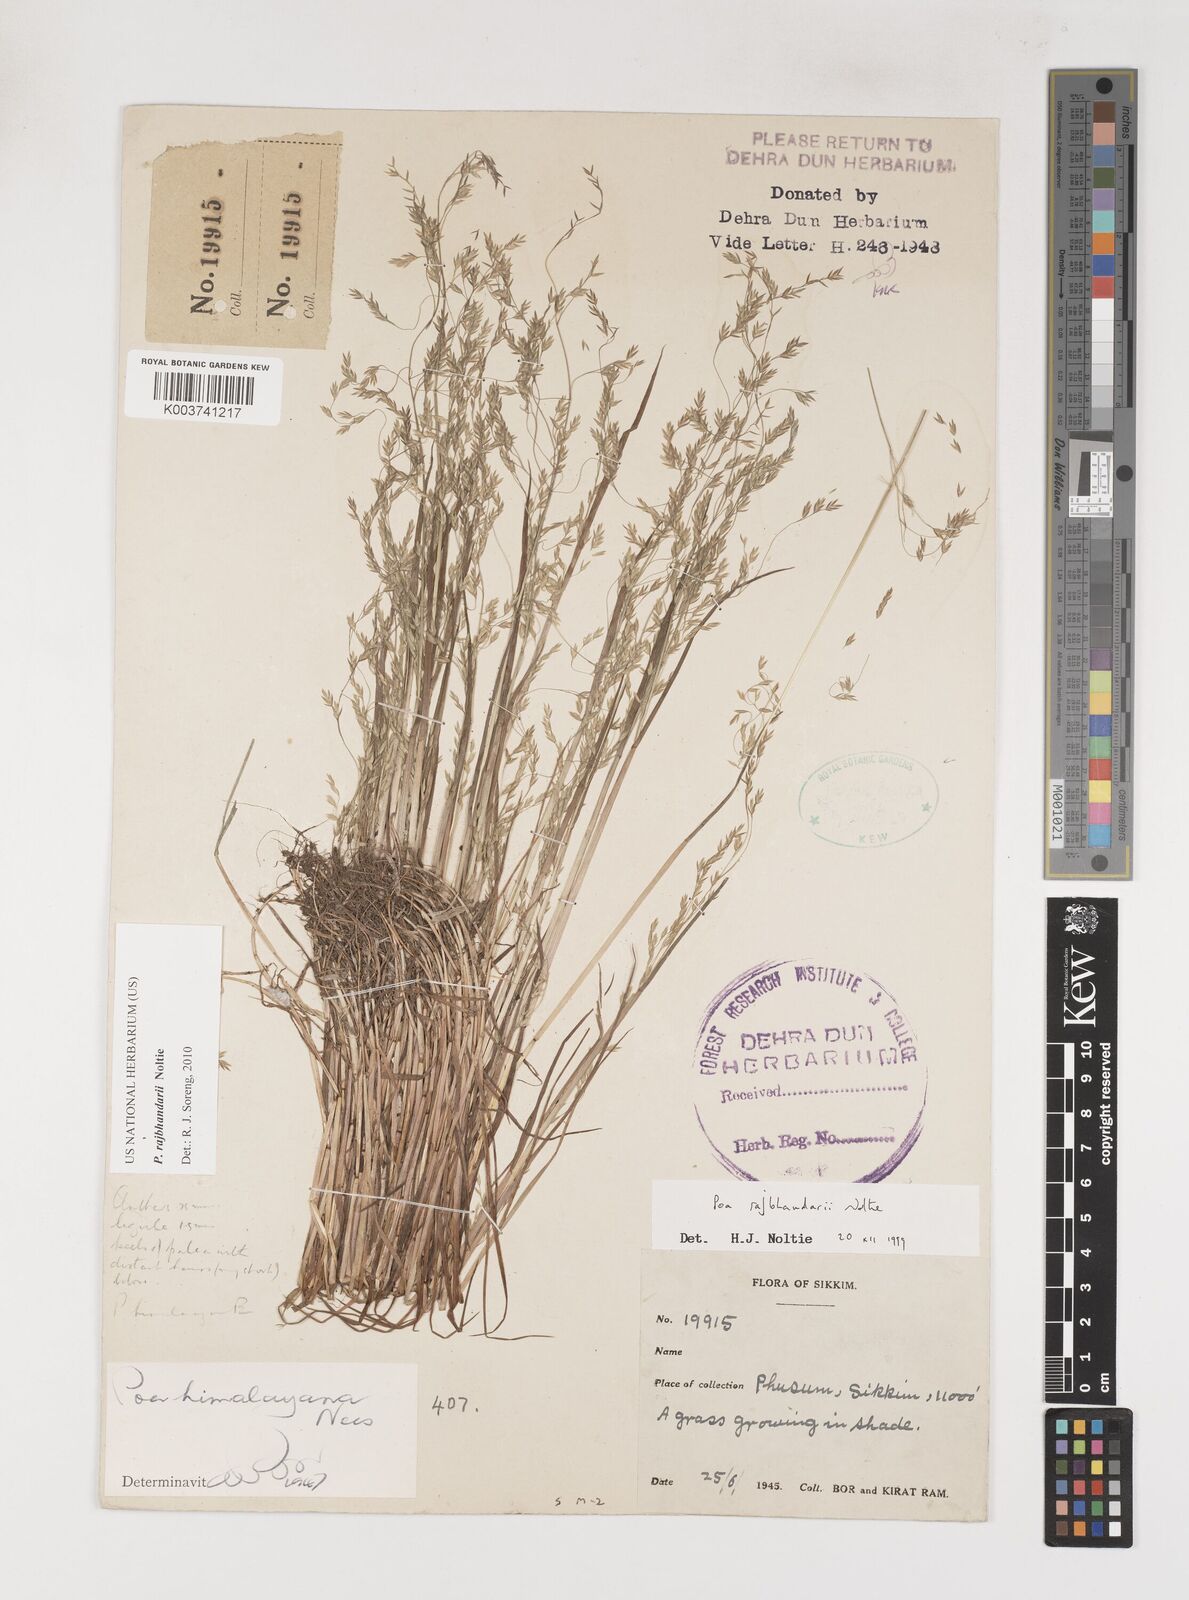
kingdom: Plantae
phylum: Tracheophyta
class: Liliopsida
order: Poales
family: Poaceae
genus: Poa
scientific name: Poa rajbhandarii
